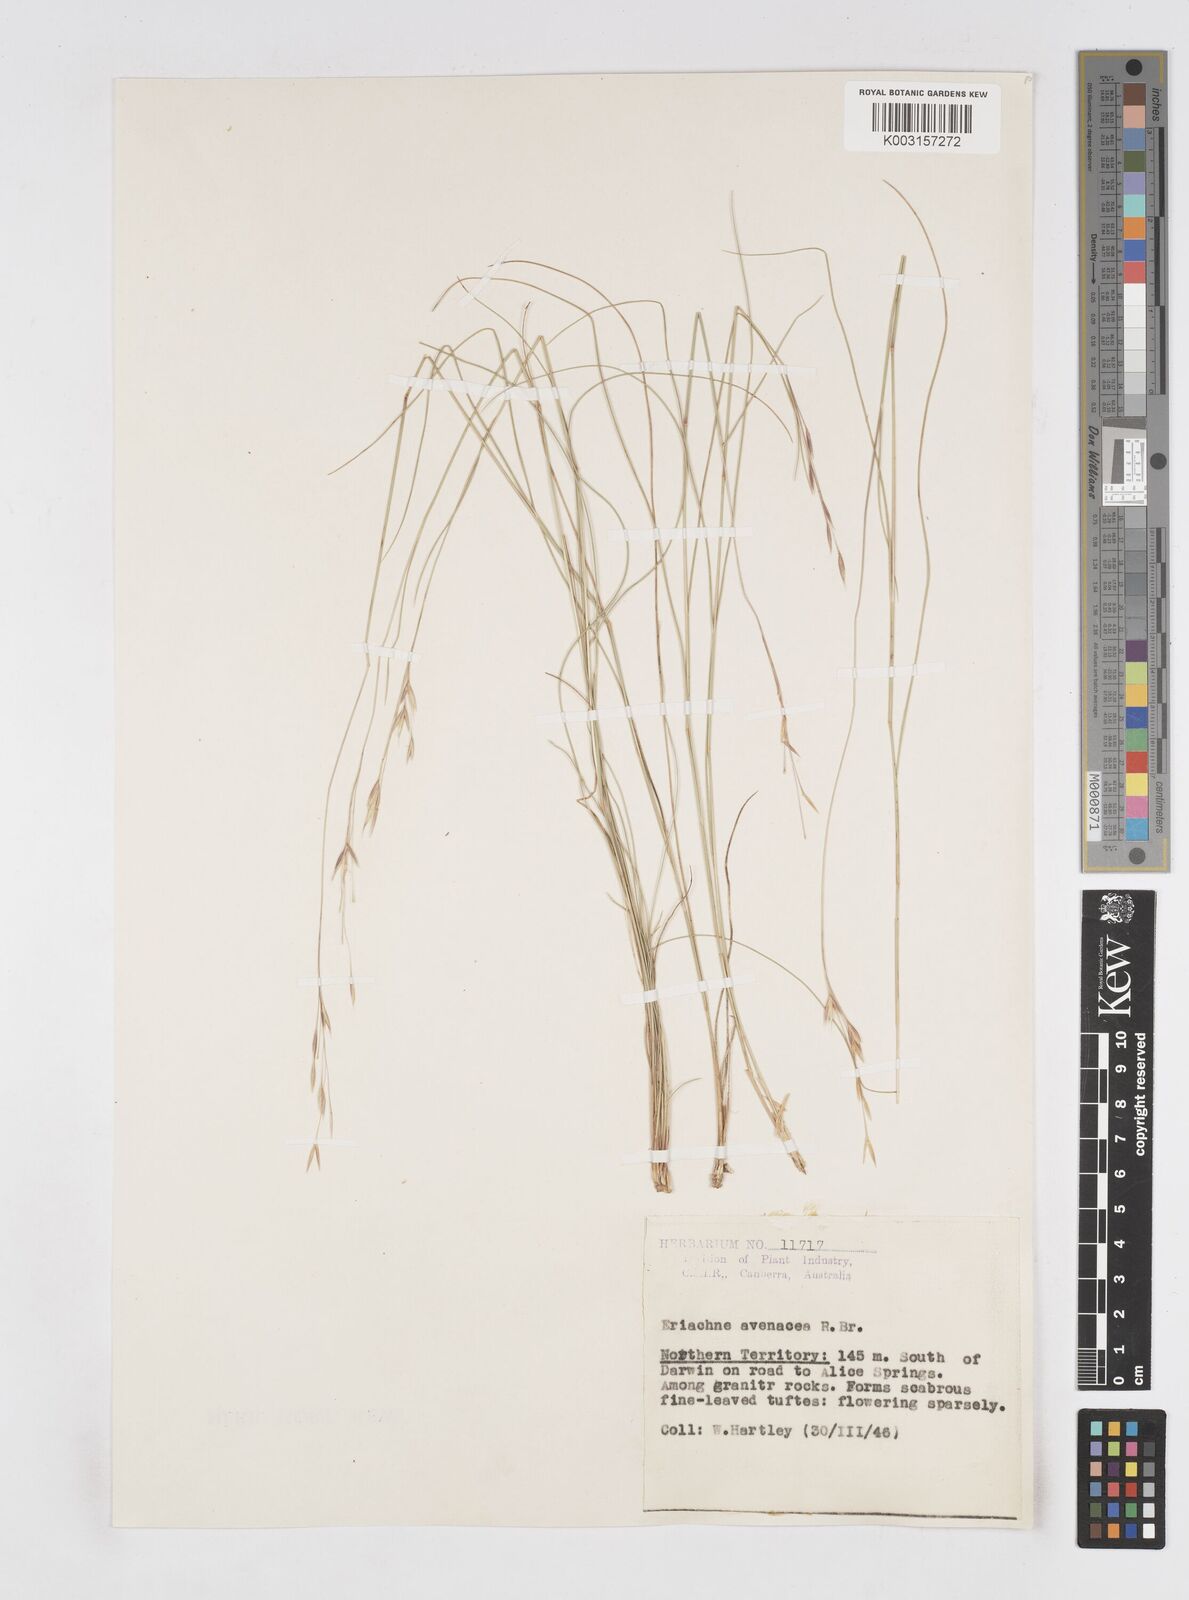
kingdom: Plantae
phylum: Tracheophyta
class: Liliopsida
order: Poales
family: Poaceae
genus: Eriachne
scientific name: Eriachne avenacea
